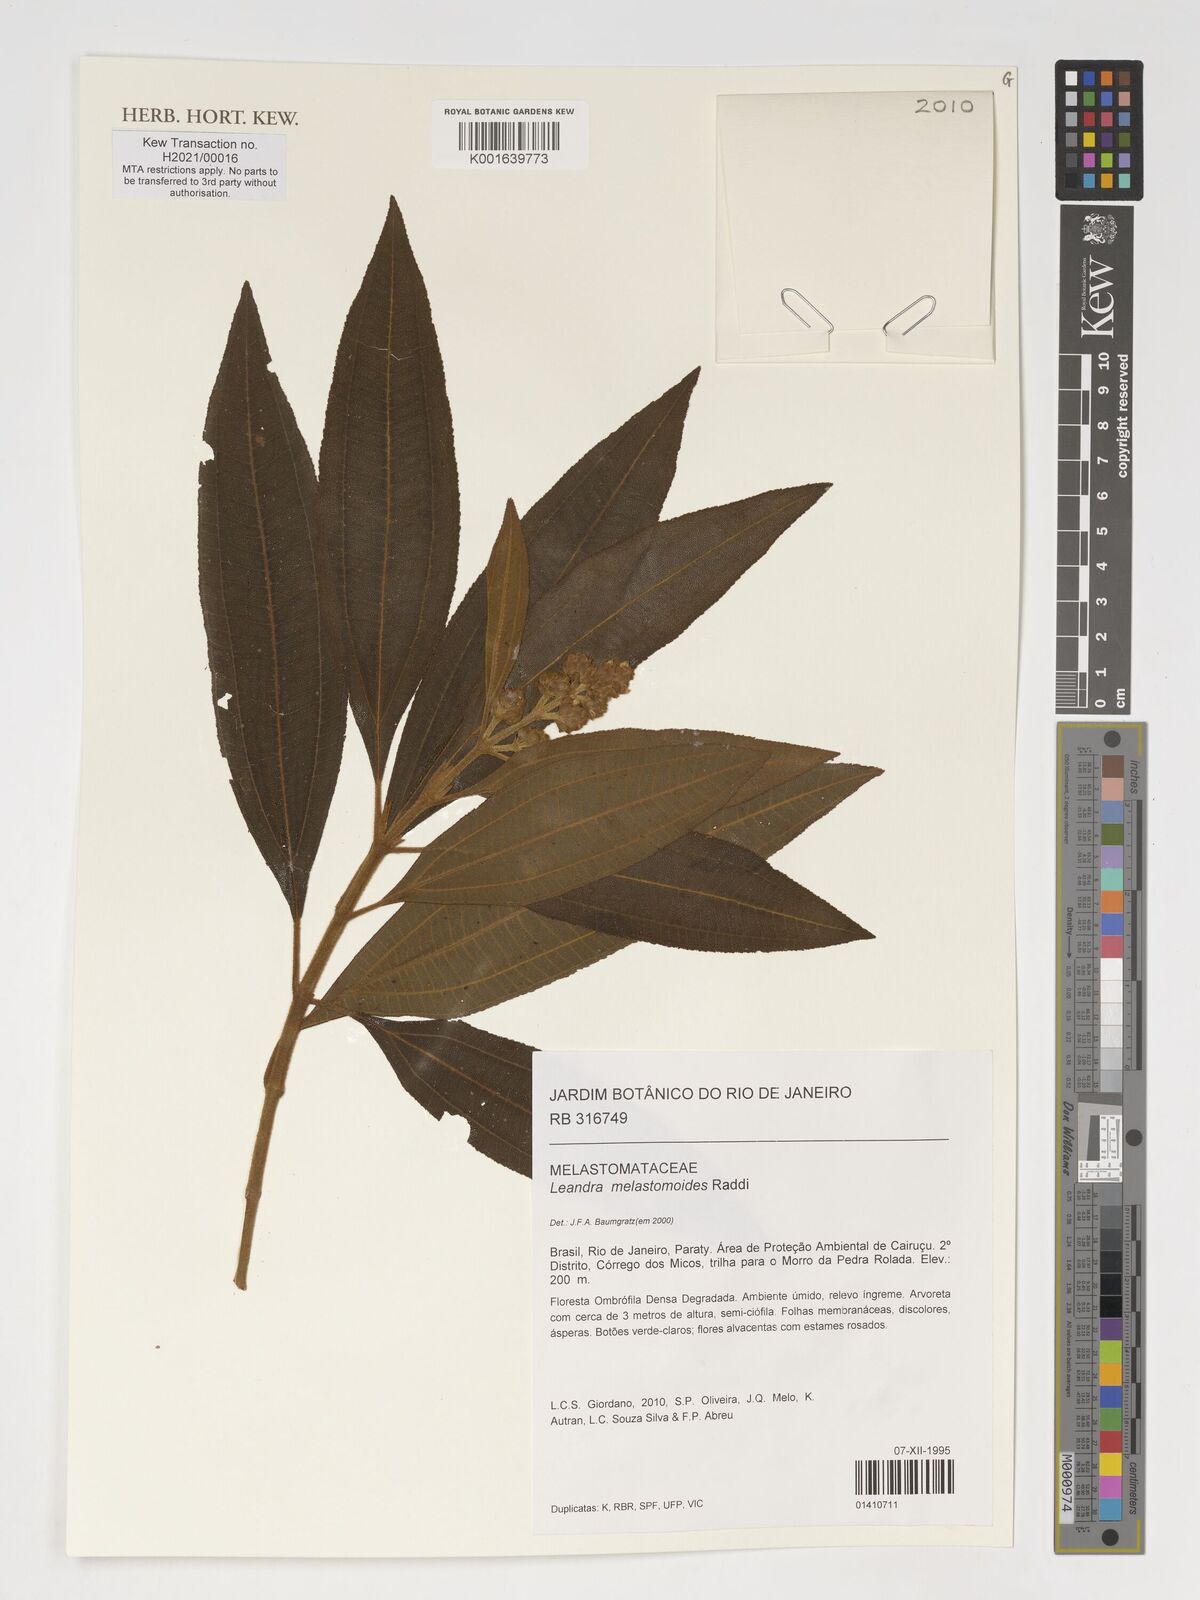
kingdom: Plantae
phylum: Tracheophyta
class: Magnoliopsida
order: Myrtales
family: Melastomataceae
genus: Miconia
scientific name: Miconia melastomoides
